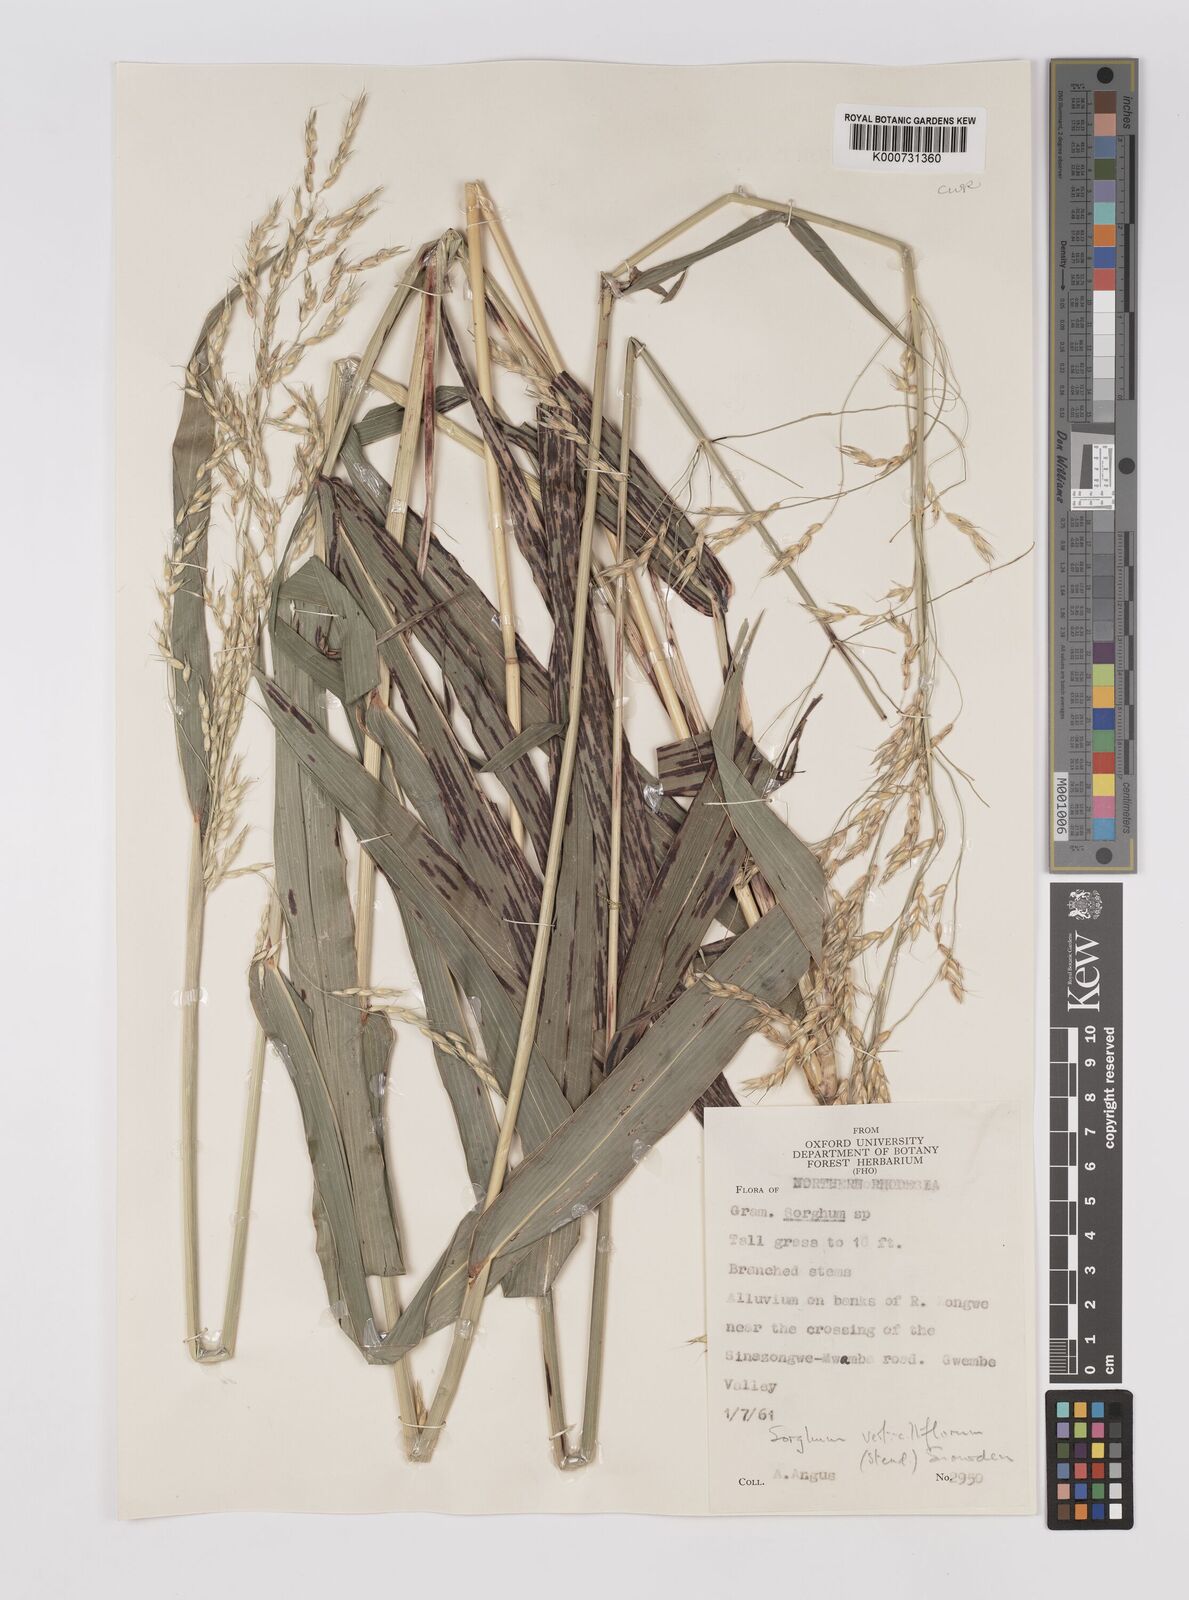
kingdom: Plantae
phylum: Tracheophyta
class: Liliopsida
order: Poales
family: Poaceae
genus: Sorghum
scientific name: Sorghum arundinaceum
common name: Sorghum
